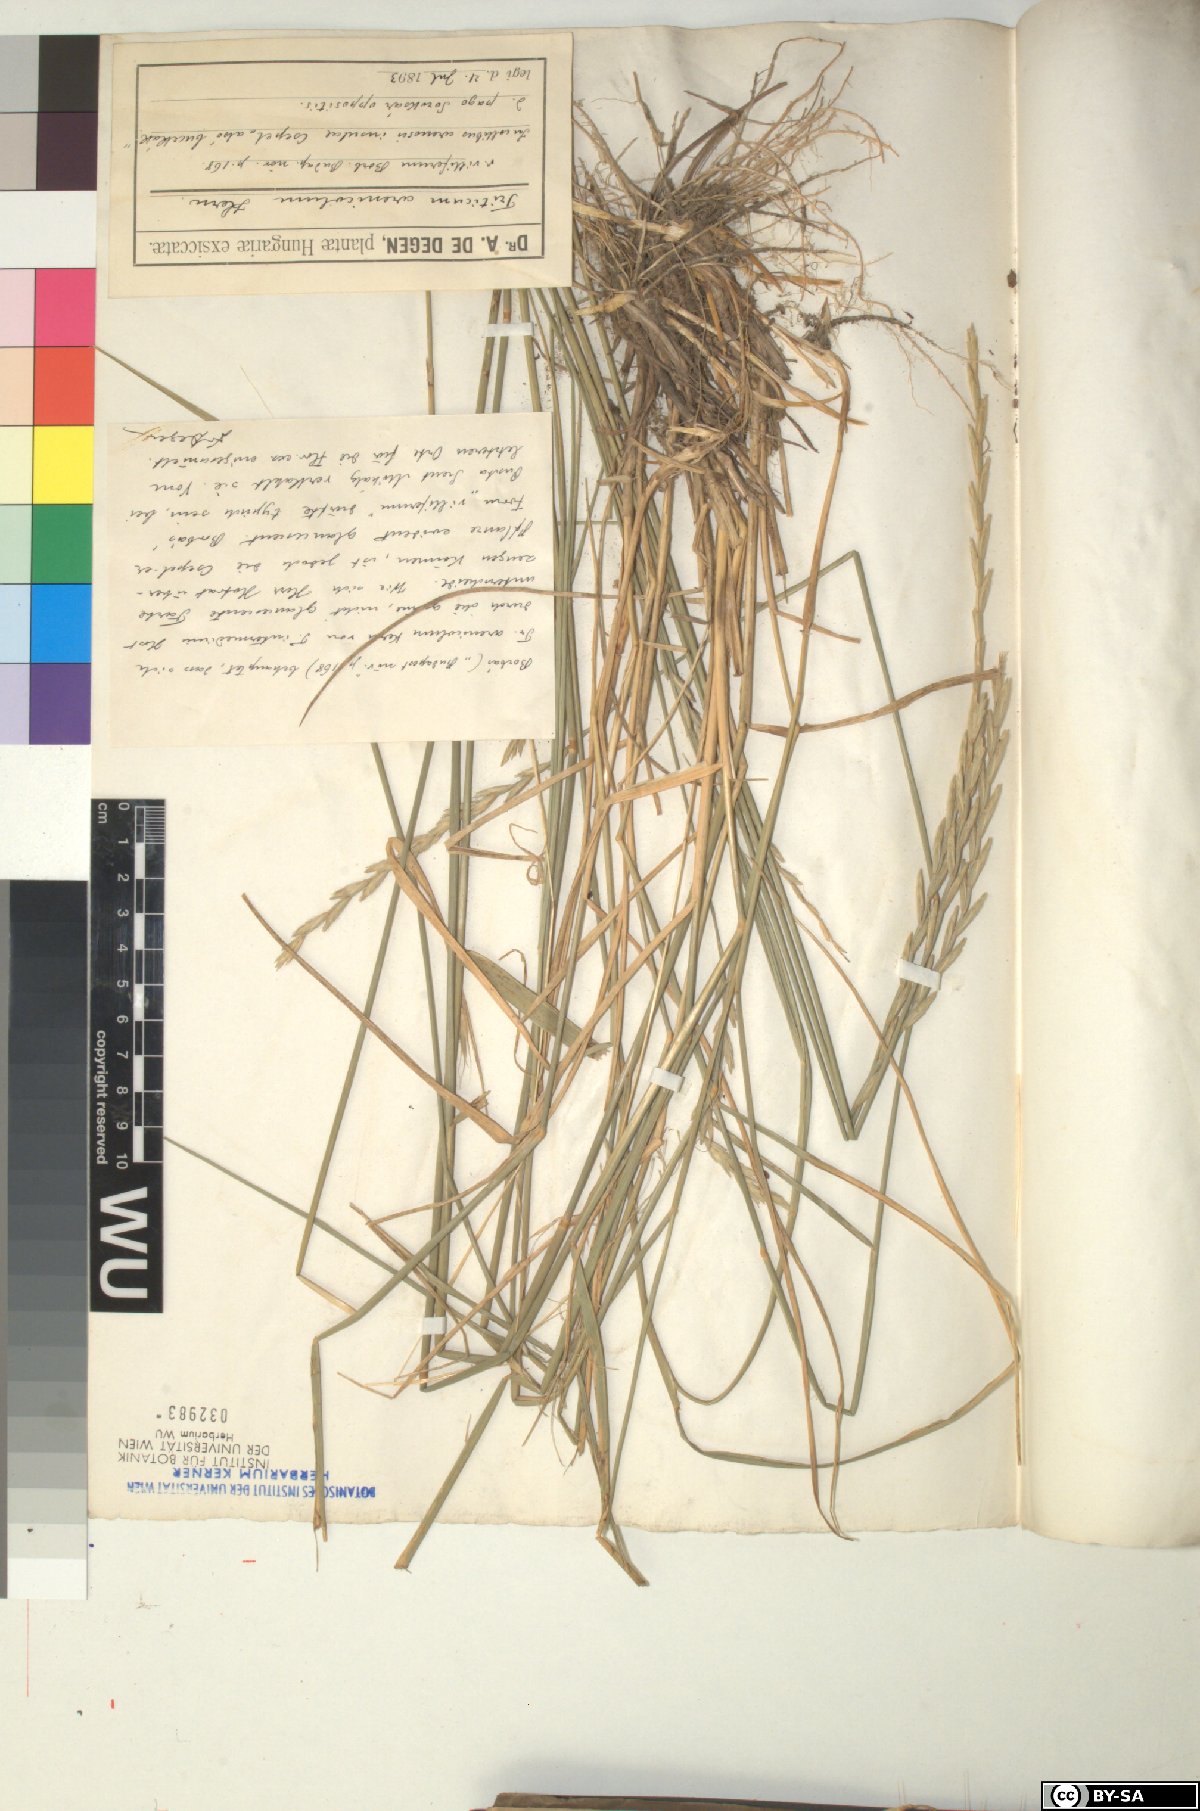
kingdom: Plantae
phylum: Tracheophyta
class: Liliopsida
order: Poales
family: Poaceae
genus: Thinopyrum
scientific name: Thinopyrum intermedium
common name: Intermediate wheatgrass
